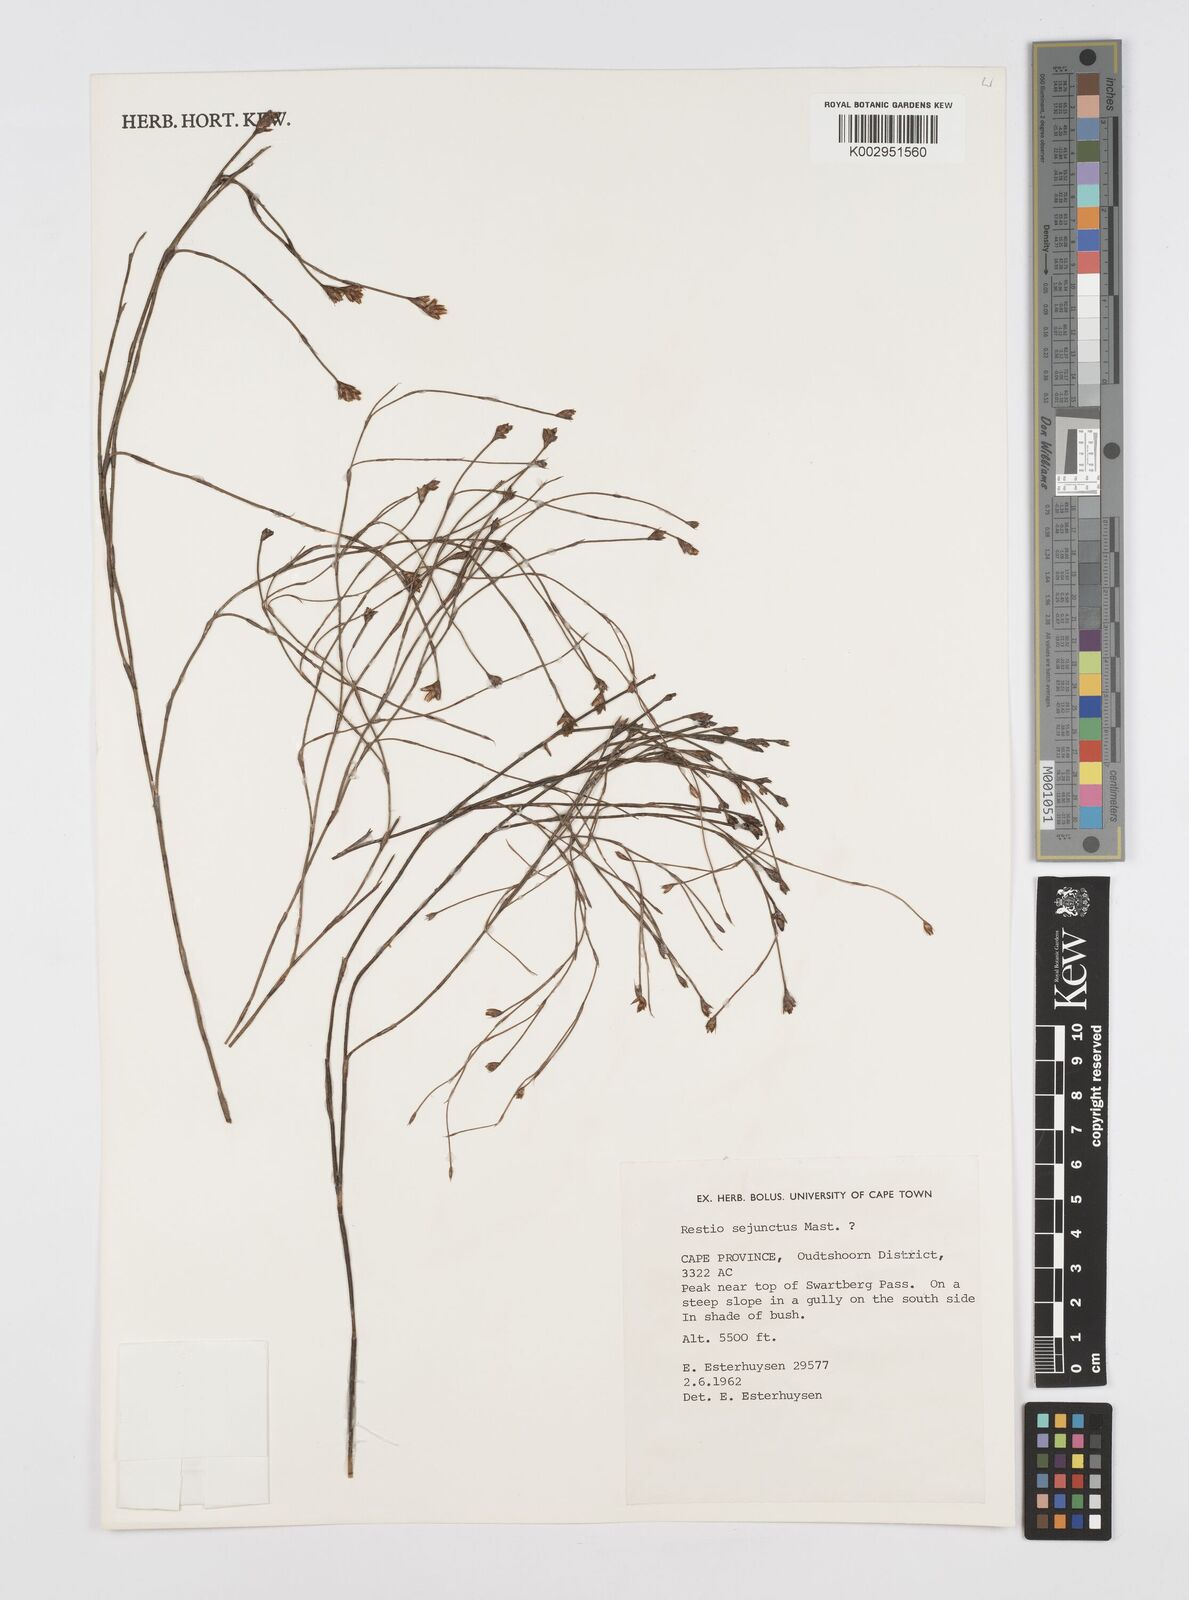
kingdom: Plantae
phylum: Tracheophyta
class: Liliopsida
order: Poales
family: Restionaceae
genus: Restio
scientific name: Restio sejunctus
